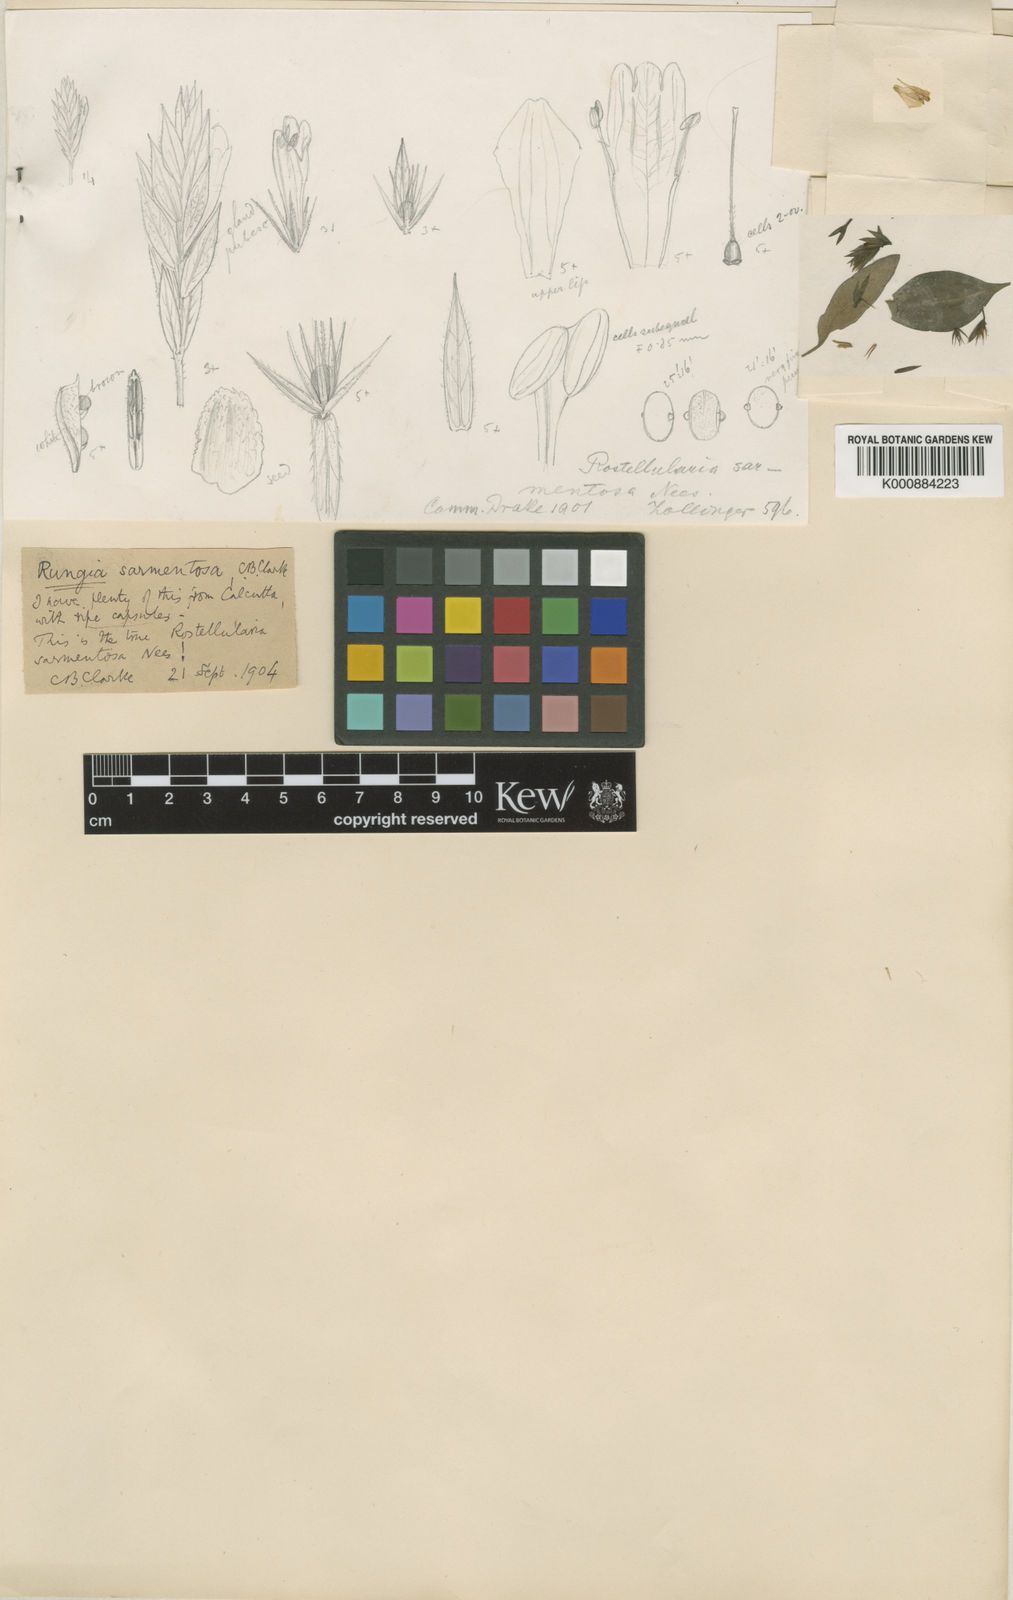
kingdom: Plantae
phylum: Tracheophyta
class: Magnoliopsida
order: Lamiales
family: Acanthaceae
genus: Justicia
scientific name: Justicia sarmentosa
